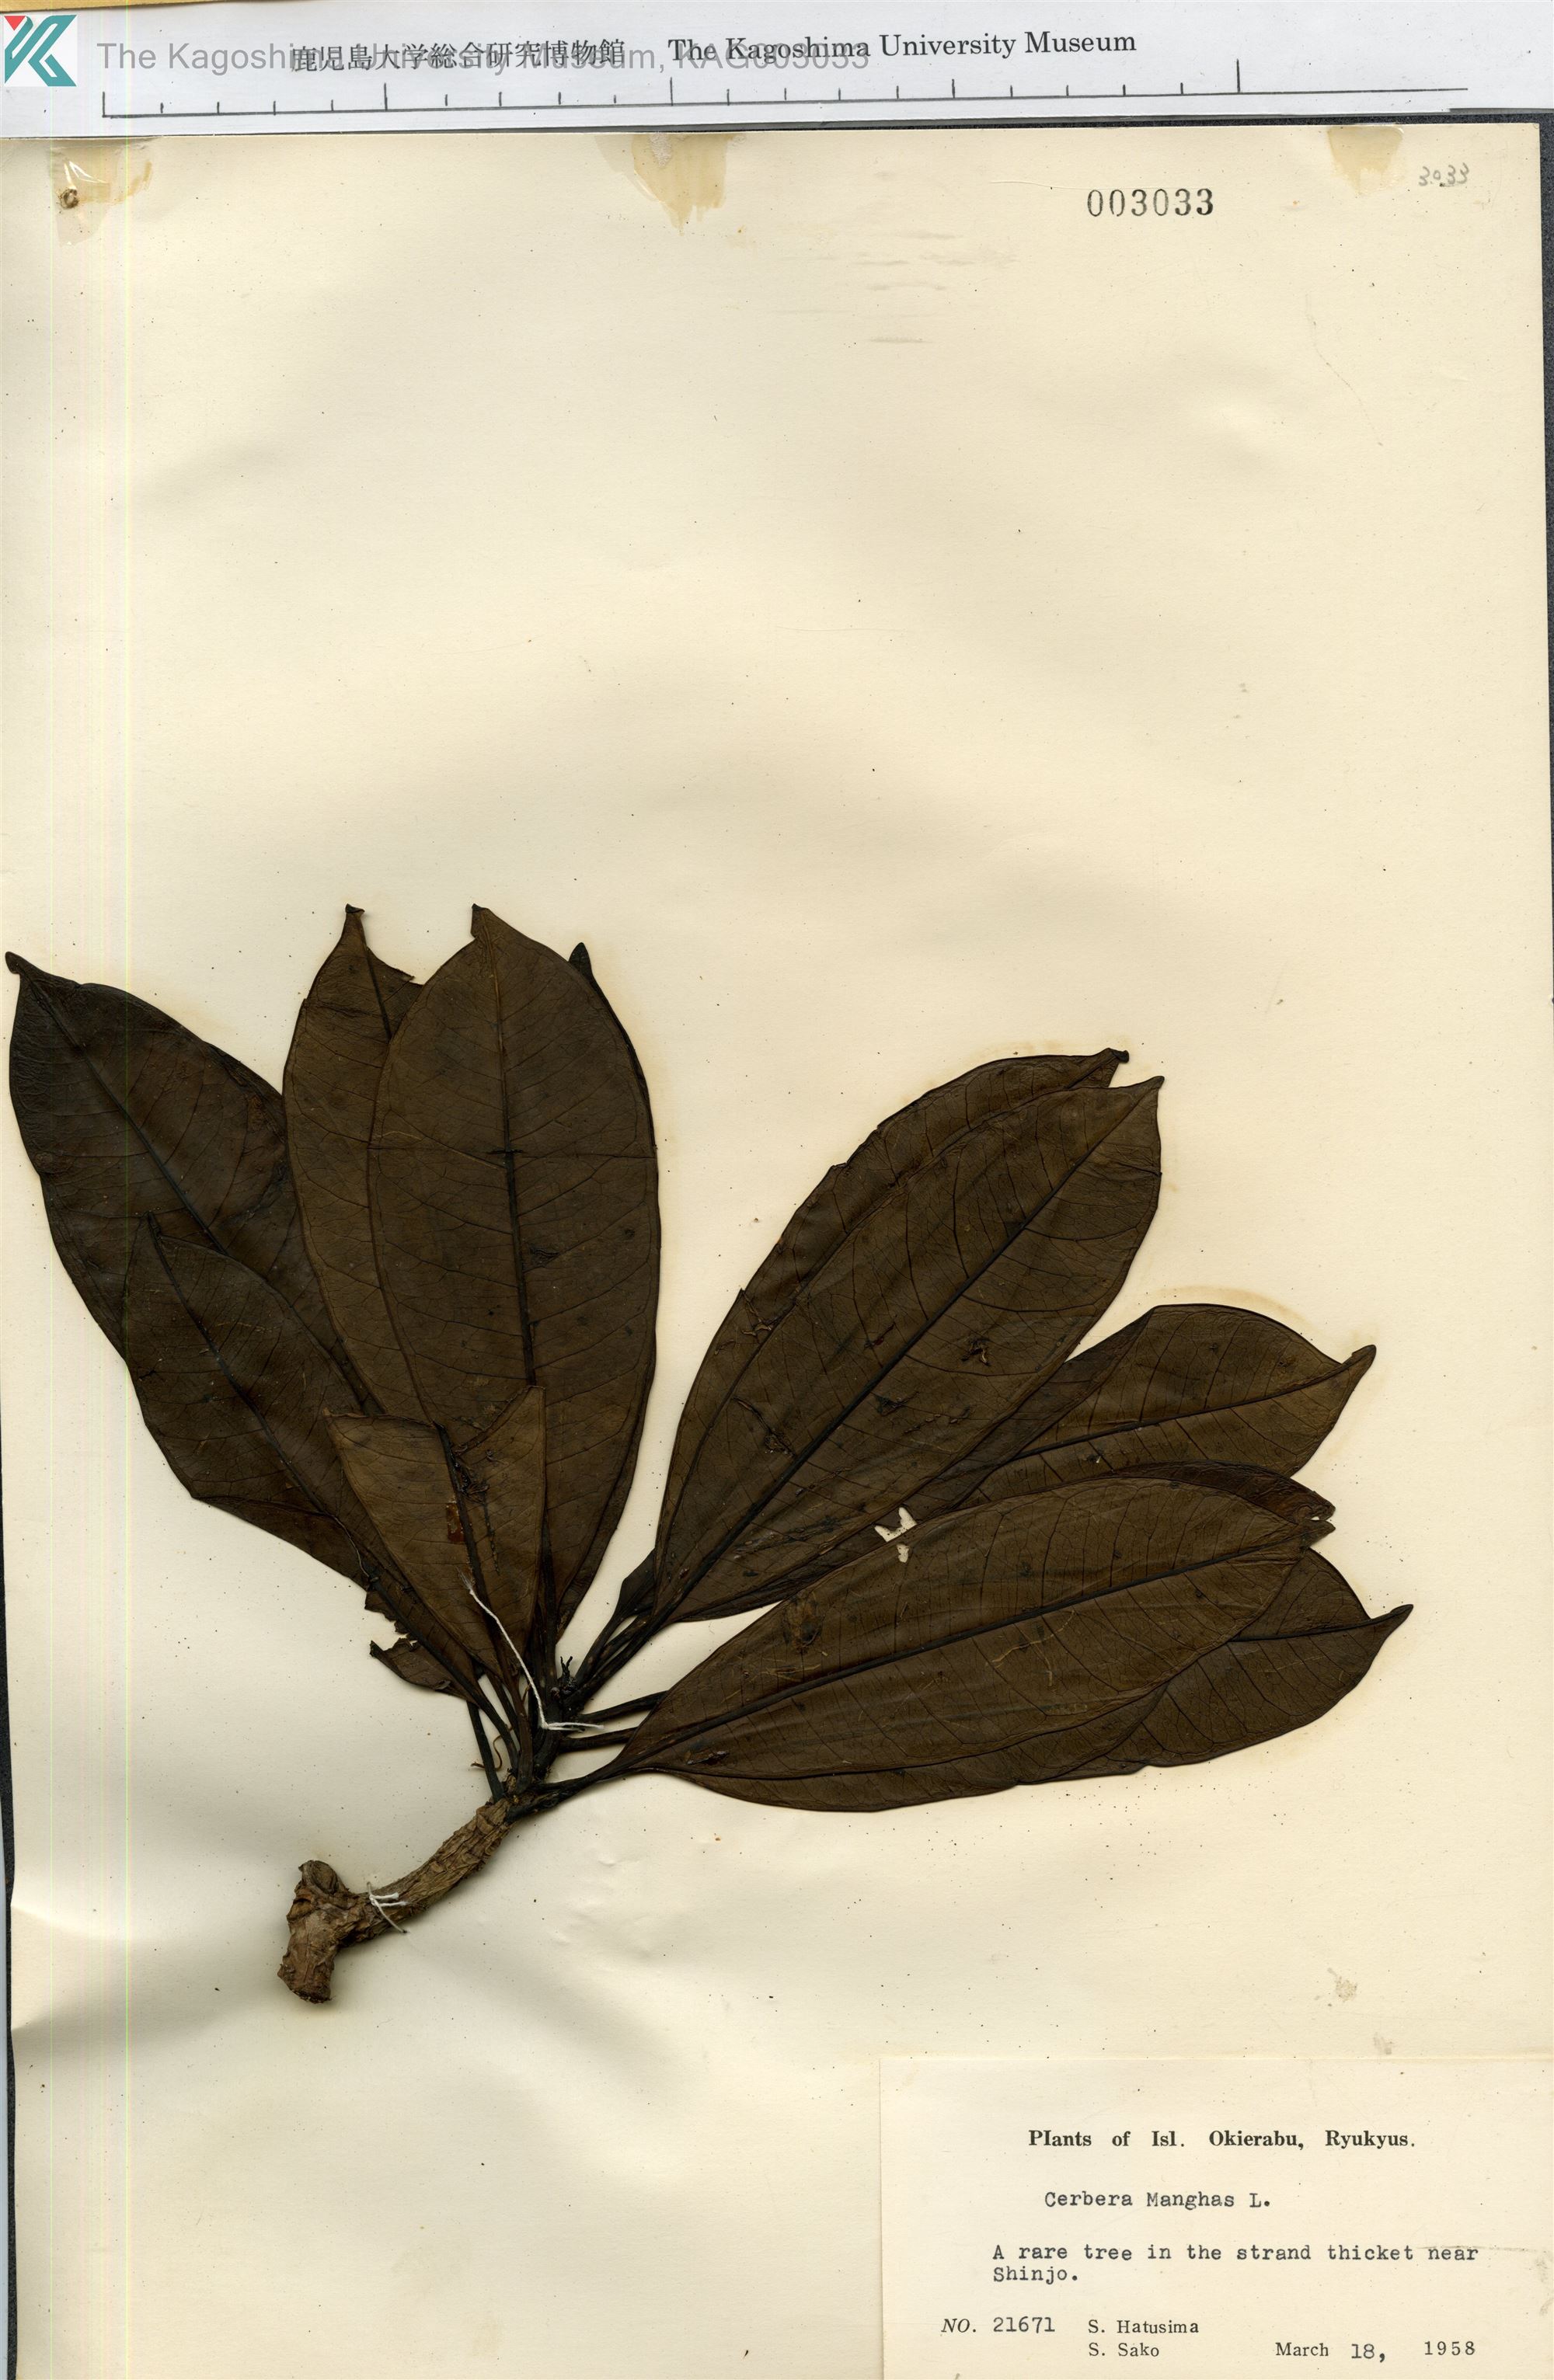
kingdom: Plantae
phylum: Tracheophyta
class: Magnoliopsida
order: Gentianales
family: Apocynaceae
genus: Cerbera
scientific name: Cerbera manghas
